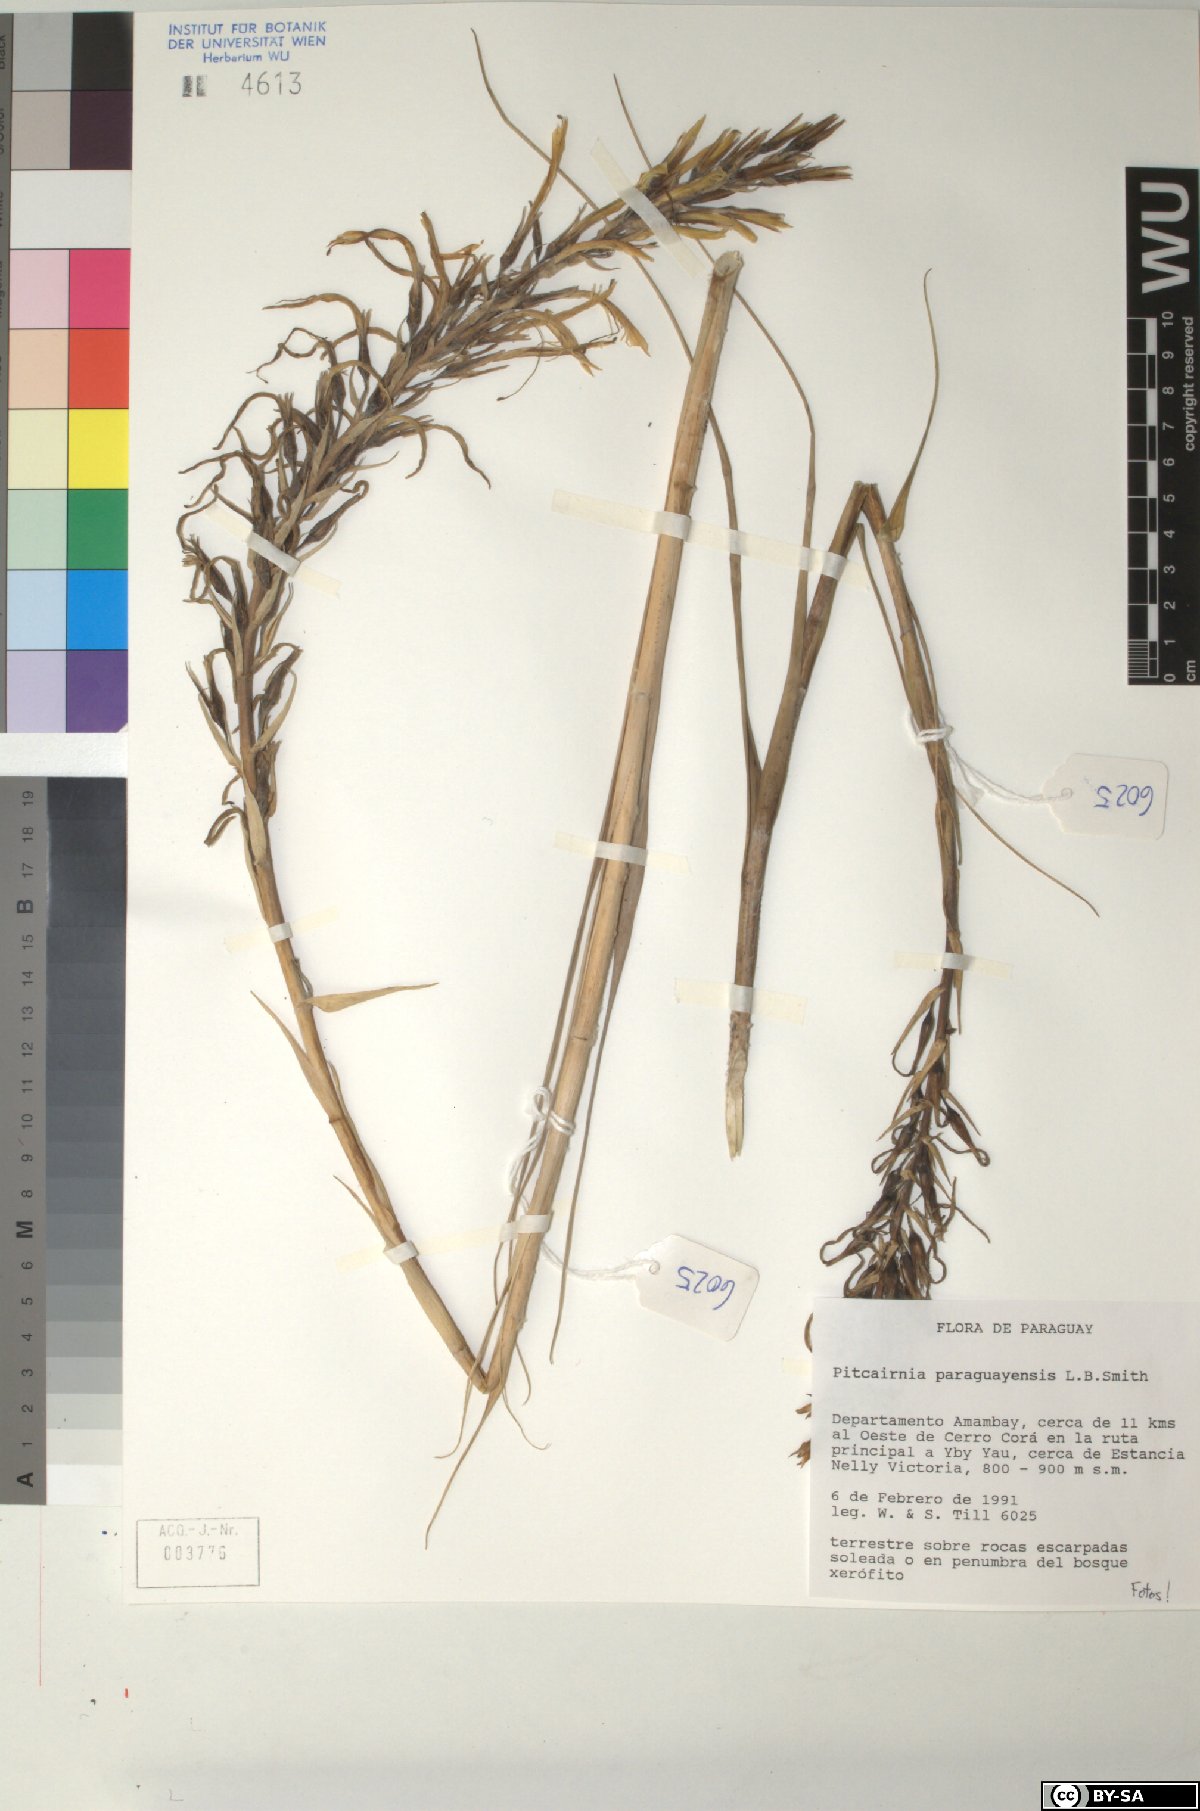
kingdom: Plantae
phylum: Tracheophyta
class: Liliopsida
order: Poales
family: Bromeliaceae
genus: Pitcairnia
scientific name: Pitcairnia paraguayensis
